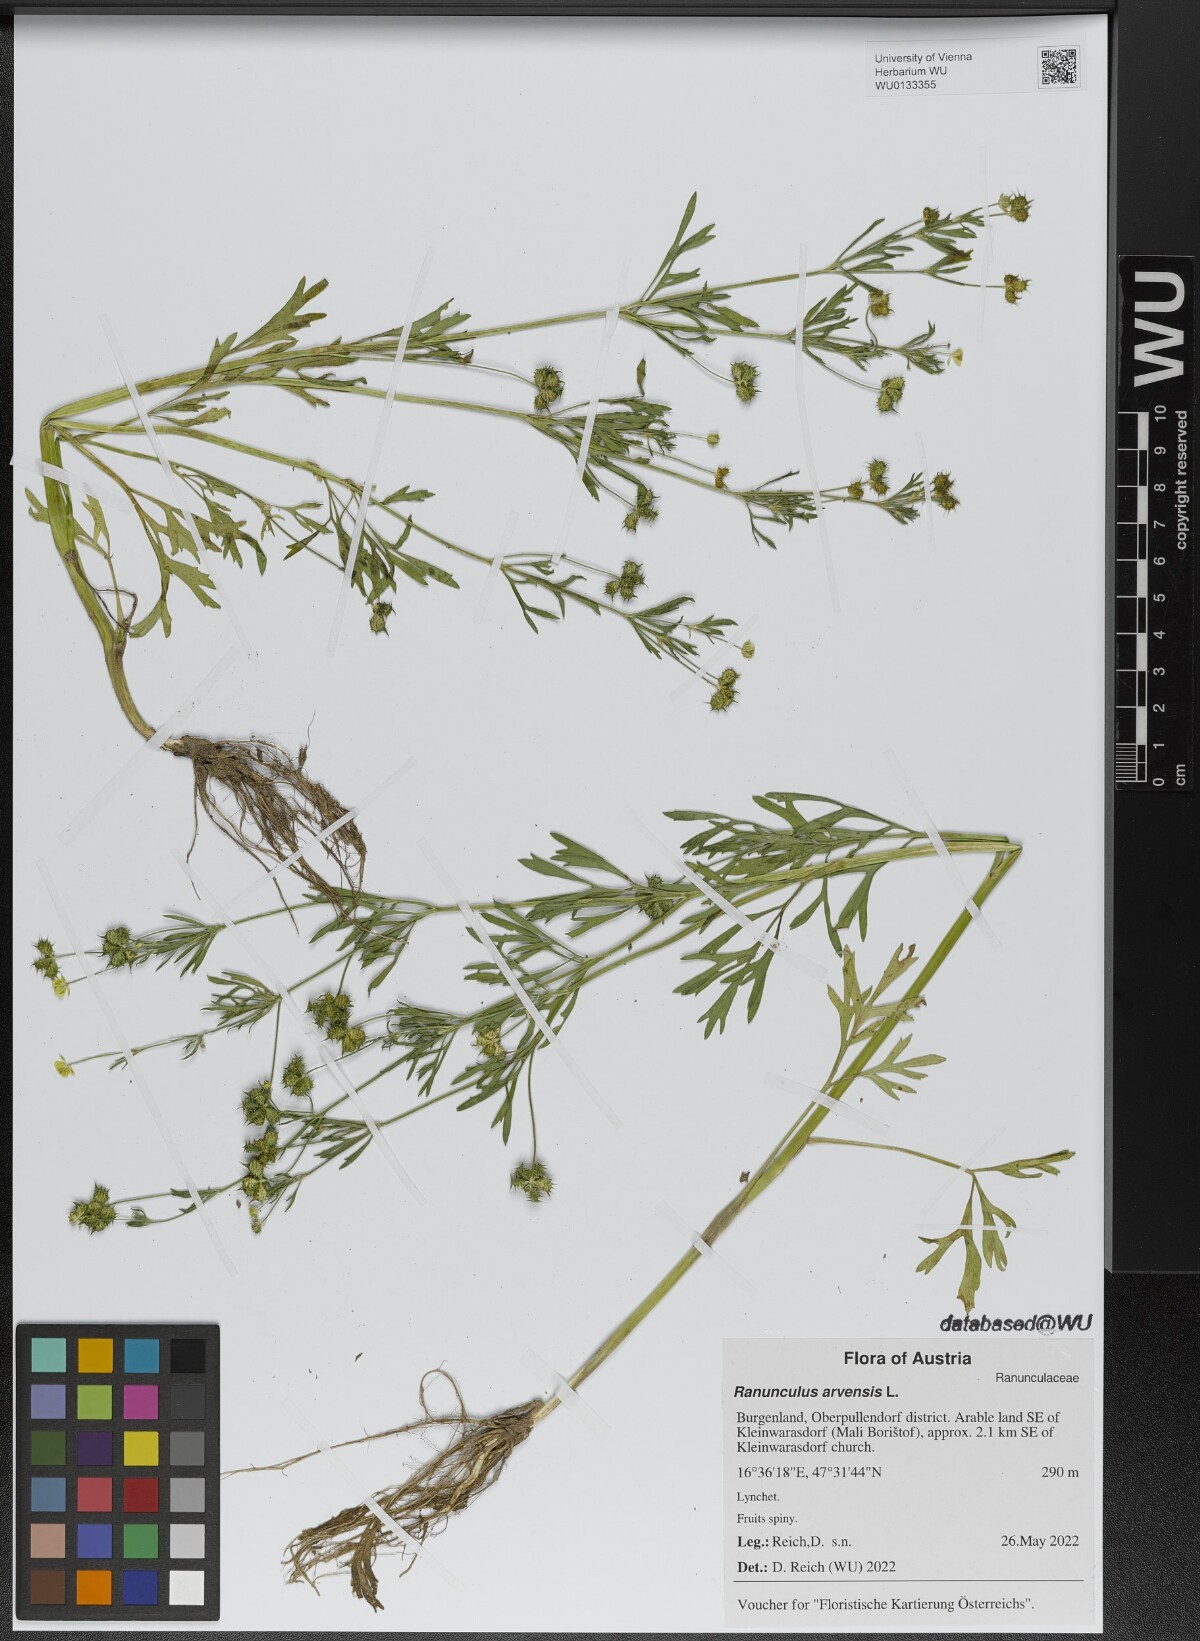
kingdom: Plantae
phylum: Tracheophyta
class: Magnoliopsida
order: Ranunculales
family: Ranunculaceae
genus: Ranunculus
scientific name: Ranunculus arvensis
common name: Corn buttercup
